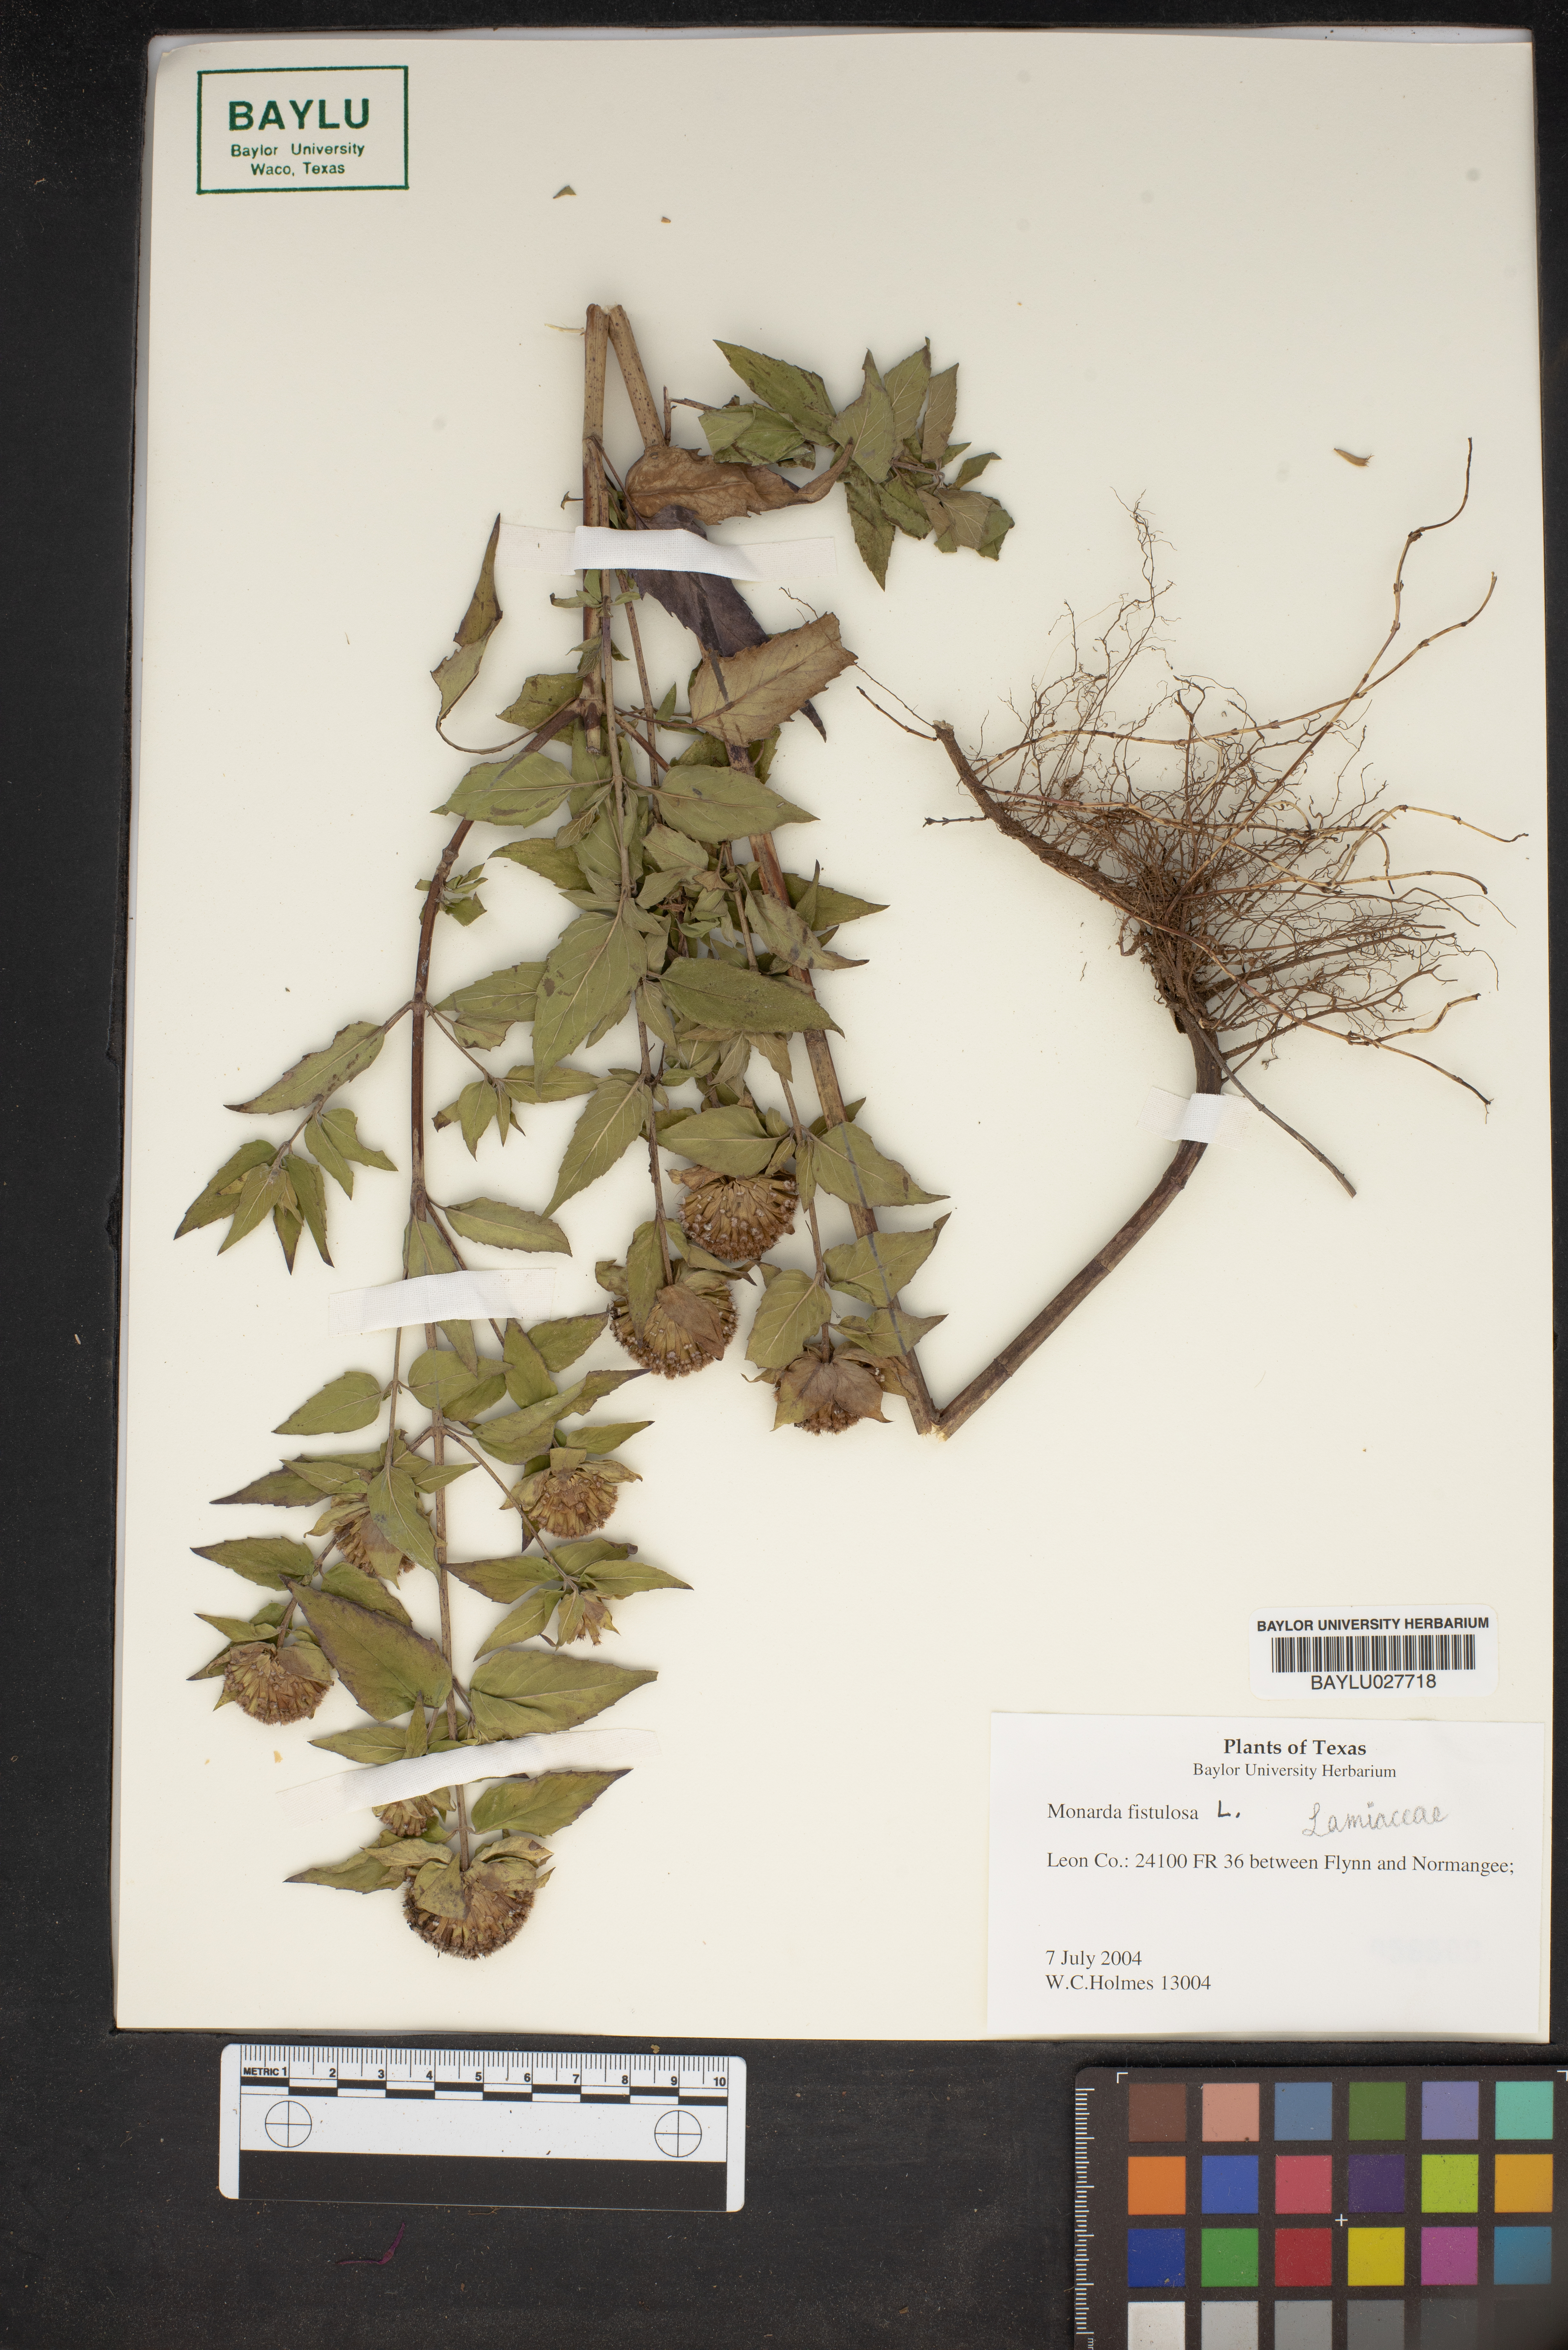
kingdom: Plantae
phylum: Tracheophyta
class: Magnoliopsida
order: Lamiales
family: Lamiaceae
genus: Monarda
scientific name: Monarda fistulosa
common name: Purple beebalm
